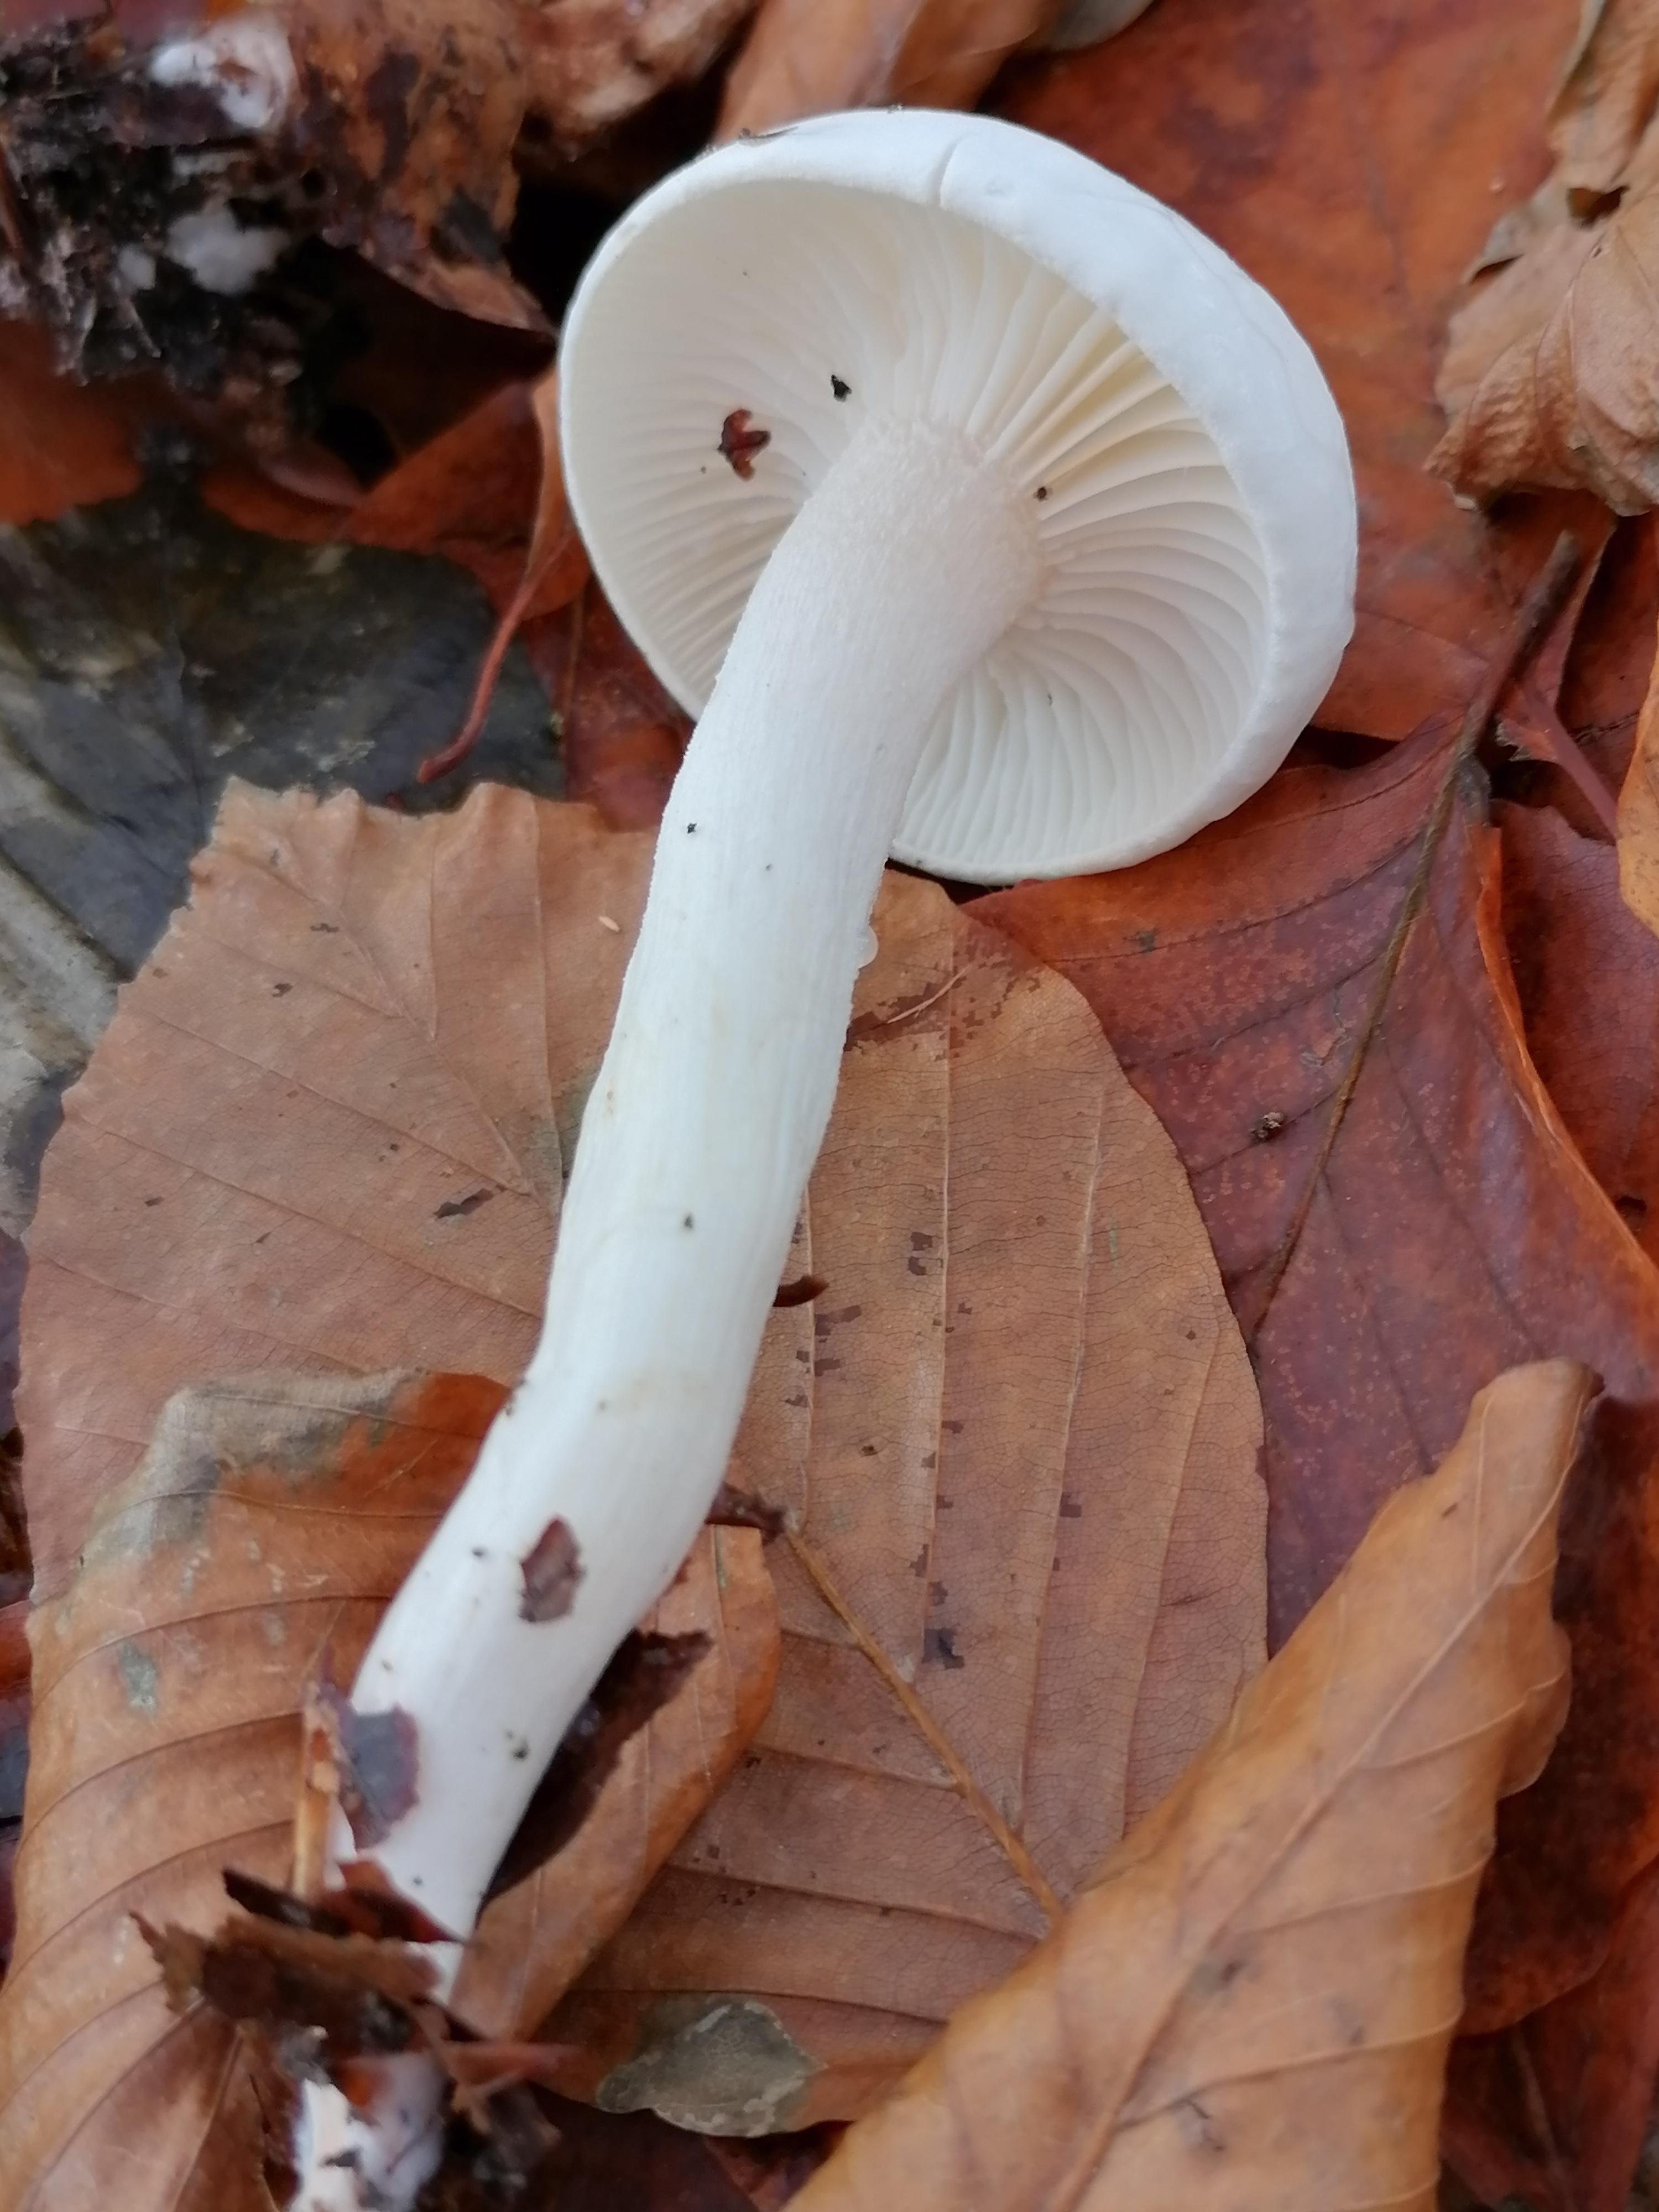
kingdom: Fungi
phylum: Basidiomycota
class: Agaricomycetes
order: Agaricales
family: Hygrophoraceae
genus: Hygrophorus
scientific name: Hygrophorus
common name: sneglehat
